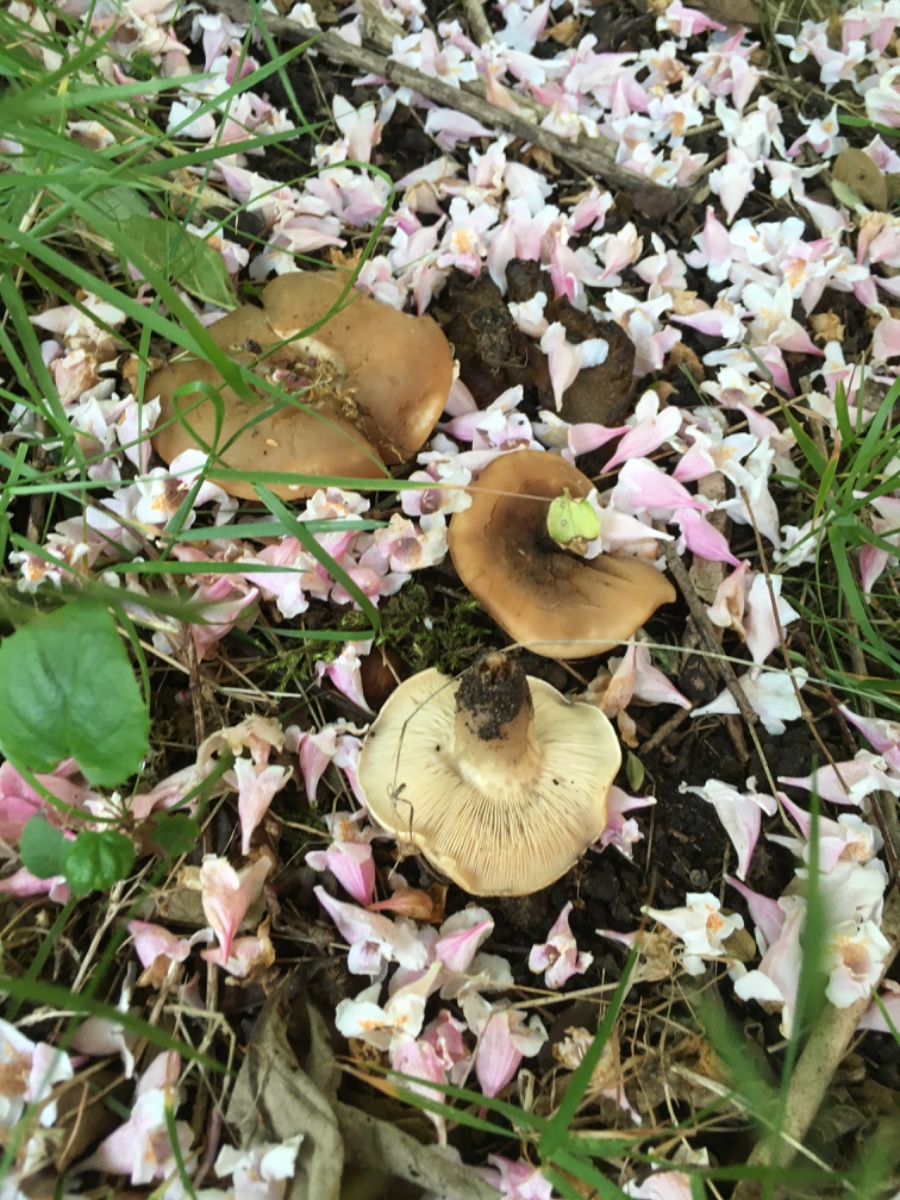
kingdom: Fungi
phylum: Basidiomycota
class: Agaricomycetes
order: Agaricales
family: Lyophyllaceae
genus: Calocybe
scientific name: Calocybe gambosa
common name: vårmusseron
